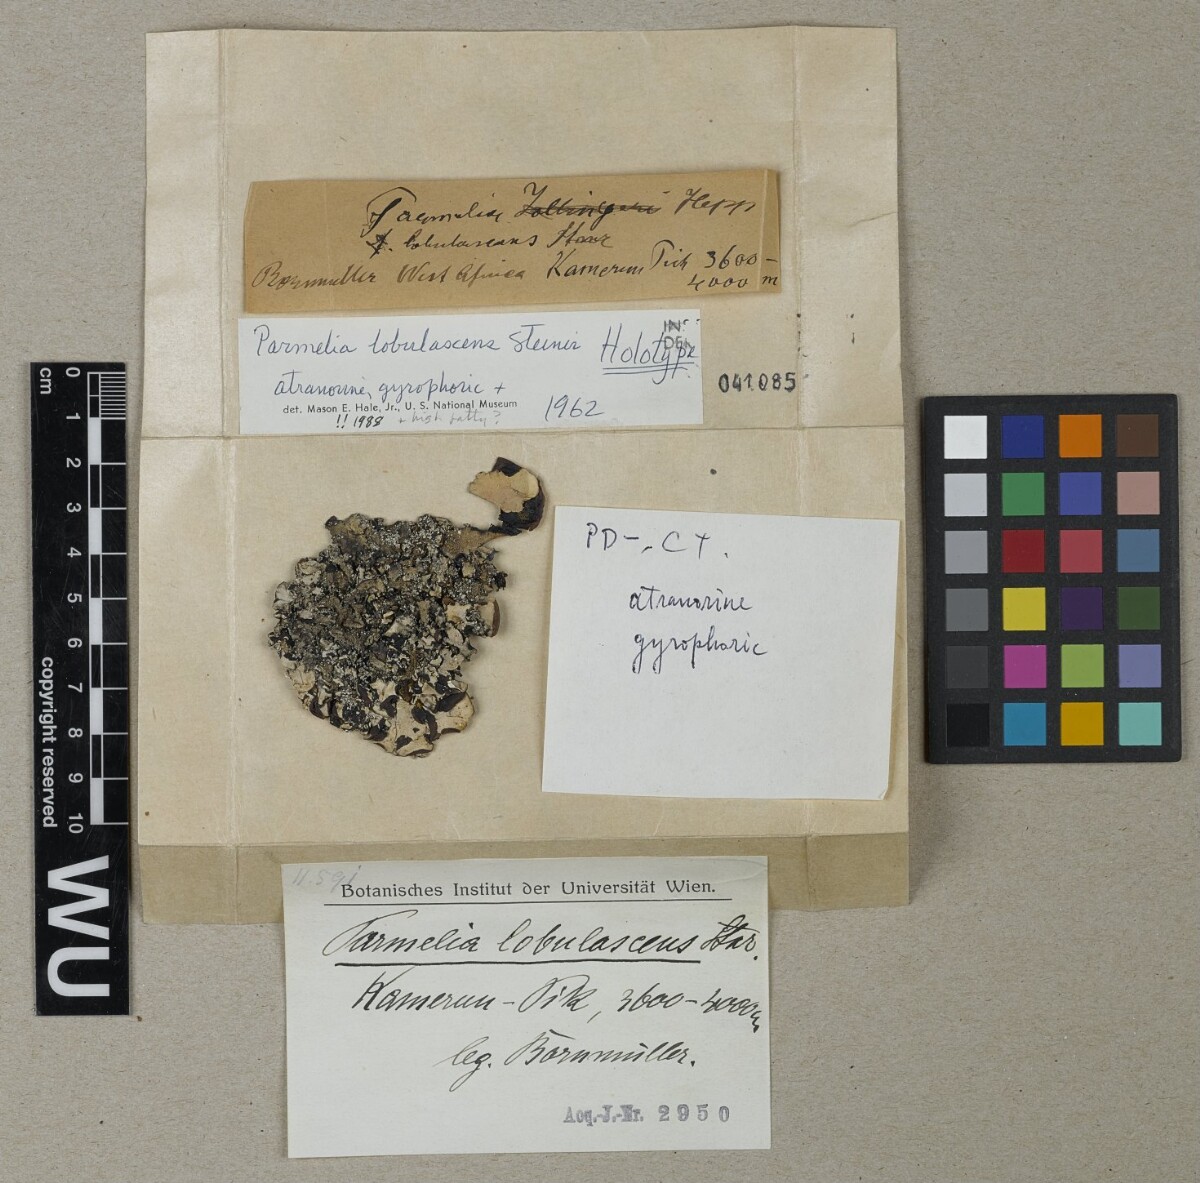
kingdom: Fungi
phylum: Ascomycota
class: Lecanoromycetes
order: Lecanorales
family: Parmeliaceae
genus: Parmotrema
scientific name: Parmotrema lobulascens
